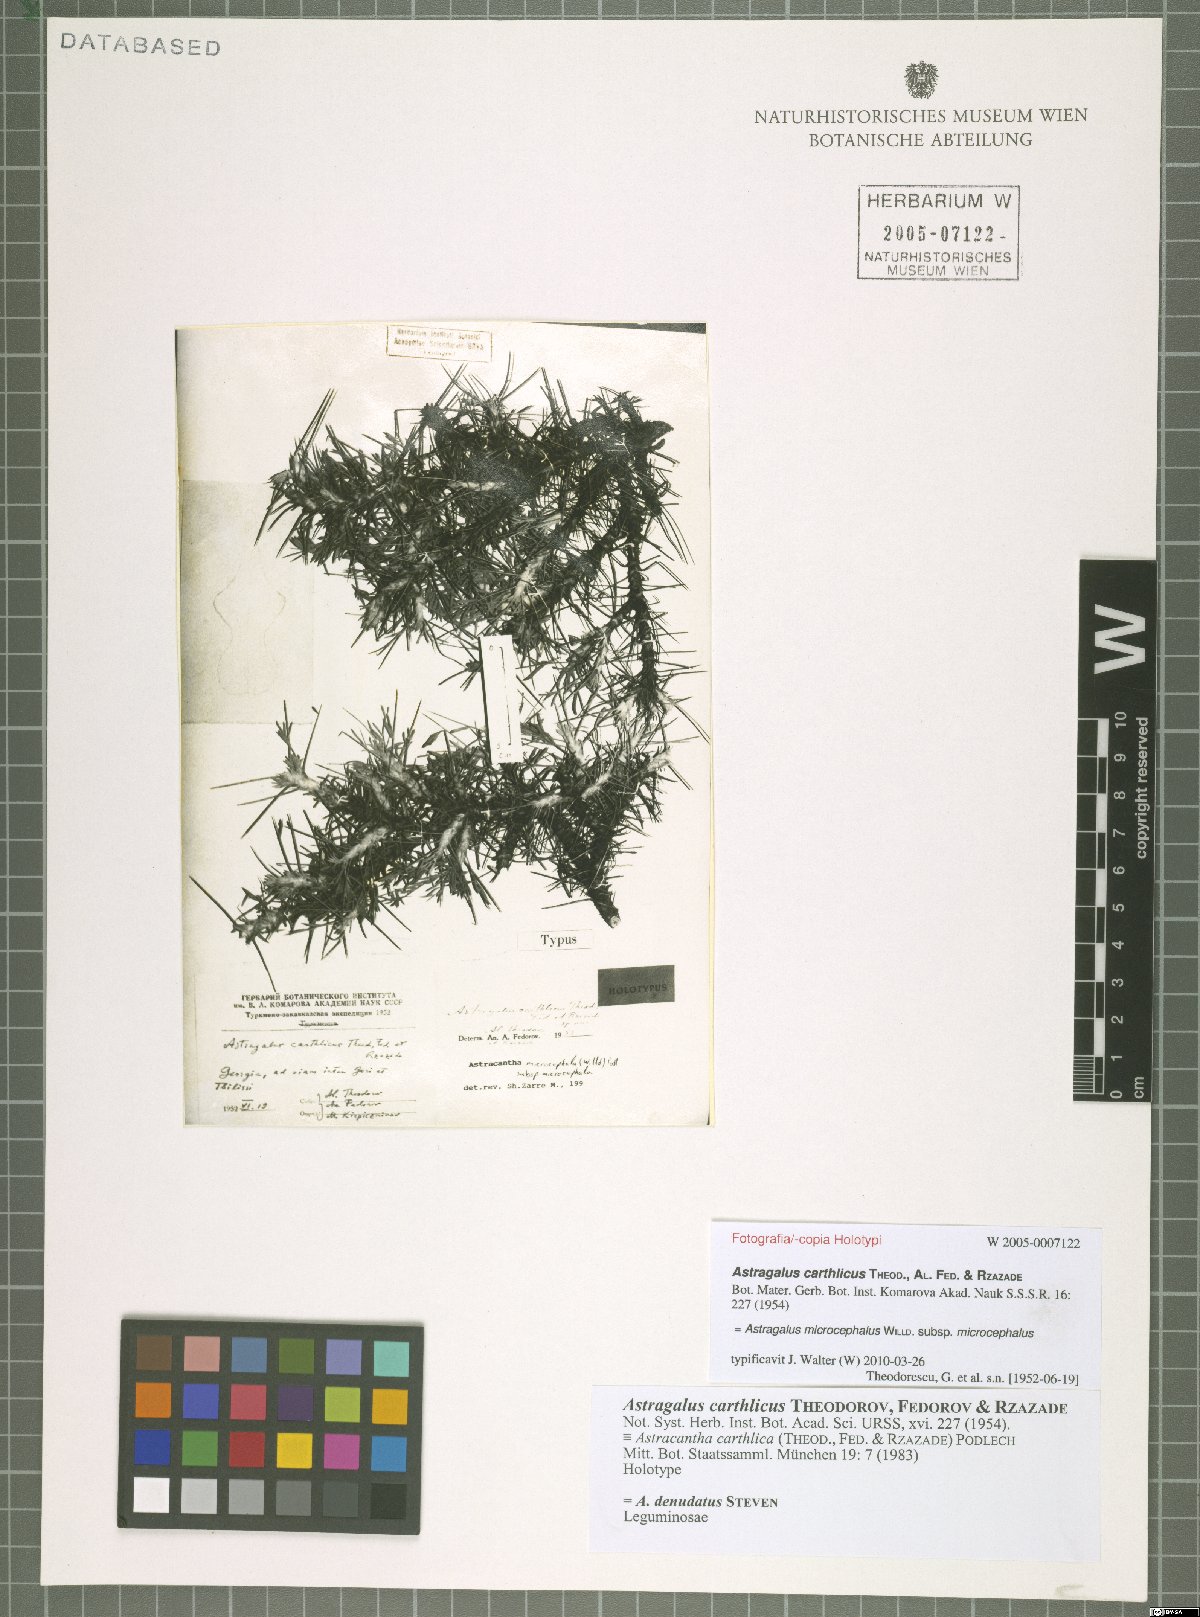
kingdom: Plantae
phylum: Tracheophyta
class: Magnoliopsida
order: Fabales
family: Fabaceae
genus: Astragalus
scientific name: Astragalus microcephalus
